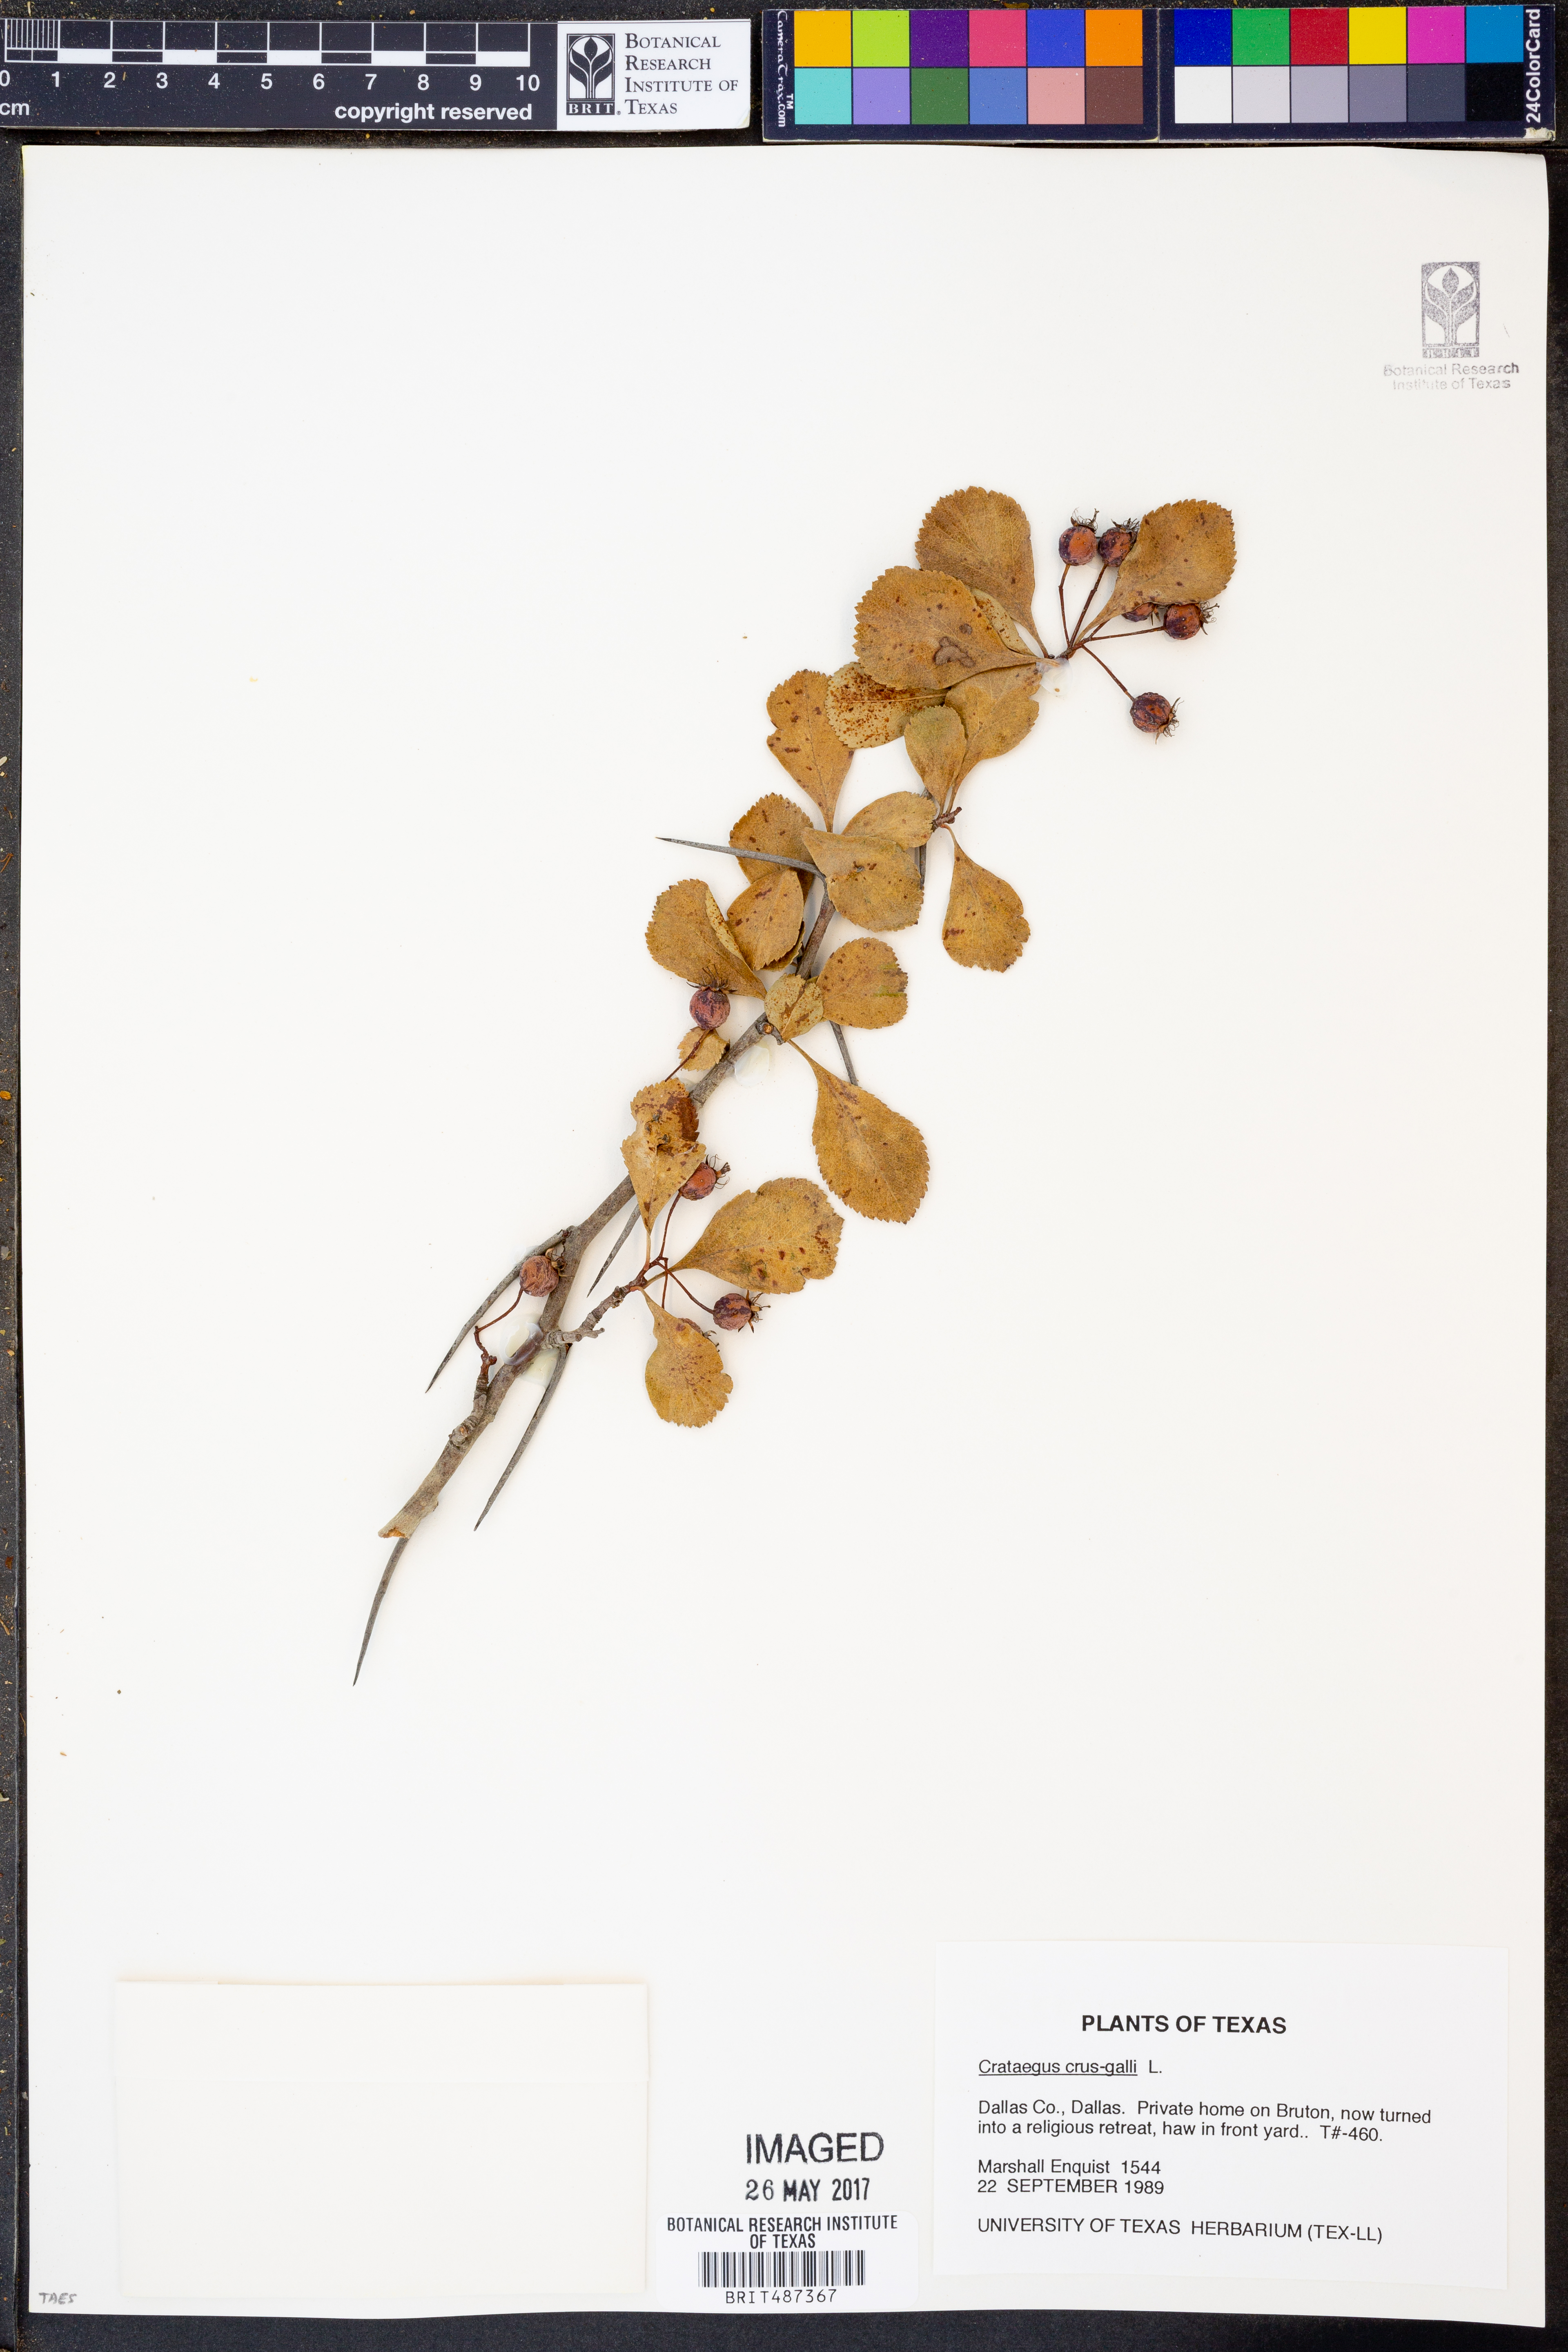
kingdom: Plantae
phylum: Tracheophyta
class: Magnoliopsida
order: Rosales
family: Rosaceae
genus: Crataegus
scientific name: Crataegus crus-galli
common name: Cockspurthorn
